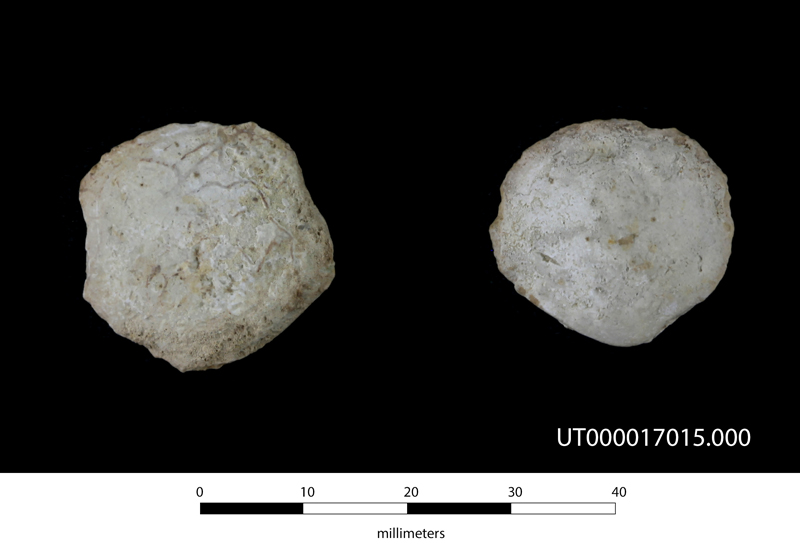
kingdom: Animalia
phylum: Mollusca
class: Bivalvia
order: Venerida
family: Veneridae
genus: Cyprimeria
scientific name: Cyprimeria
